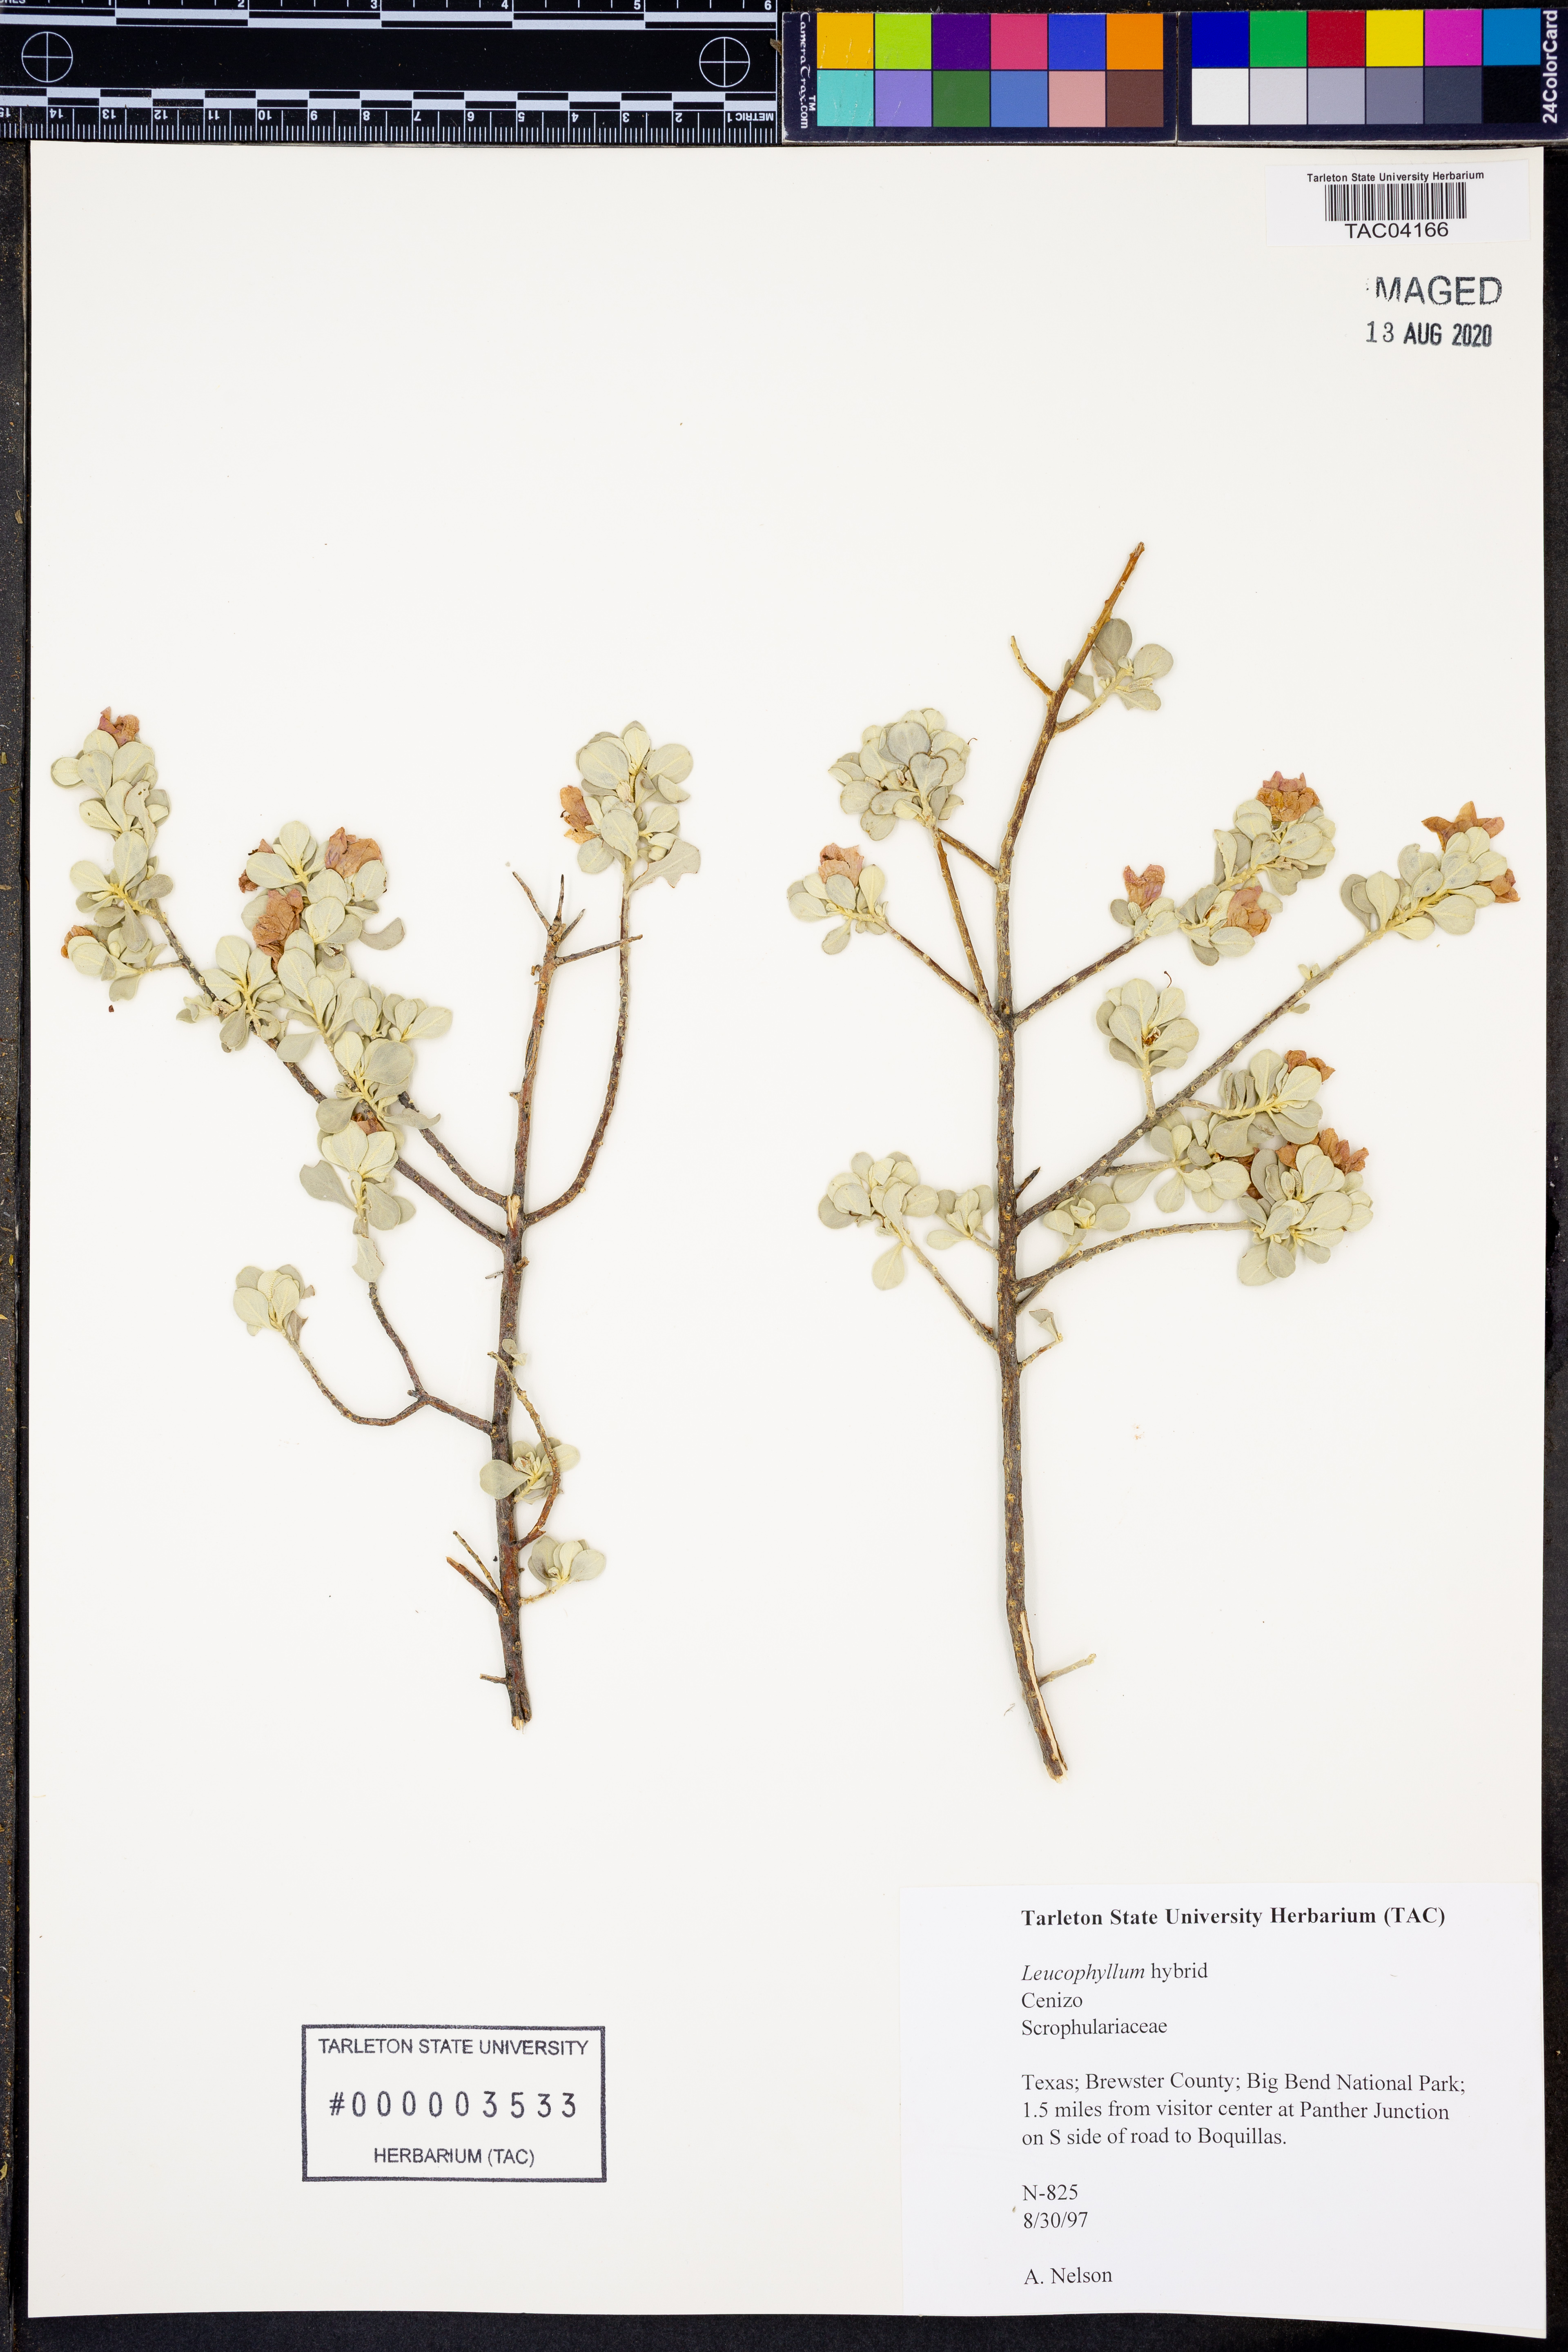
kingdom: Plantae
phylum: Tracheophyta
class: Magnoliopsida
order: Lamiales
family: Scrophulariaceae
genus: Leucophyllum
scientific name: Leucophyllum
